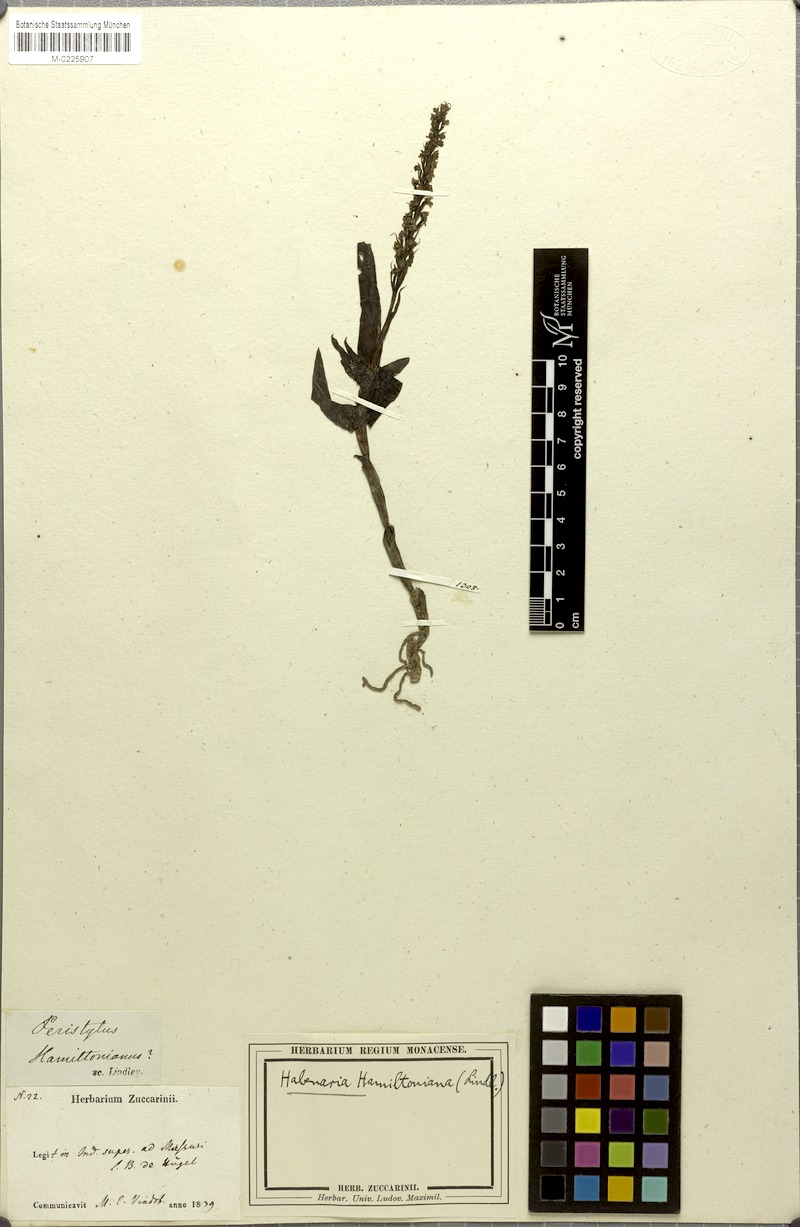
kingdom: Plantae
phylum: Tracheophyta
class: Liliopsida
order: Asparagales
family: Orchidaceae
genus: Peristylus
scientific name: Peristylus hamiltonianus
